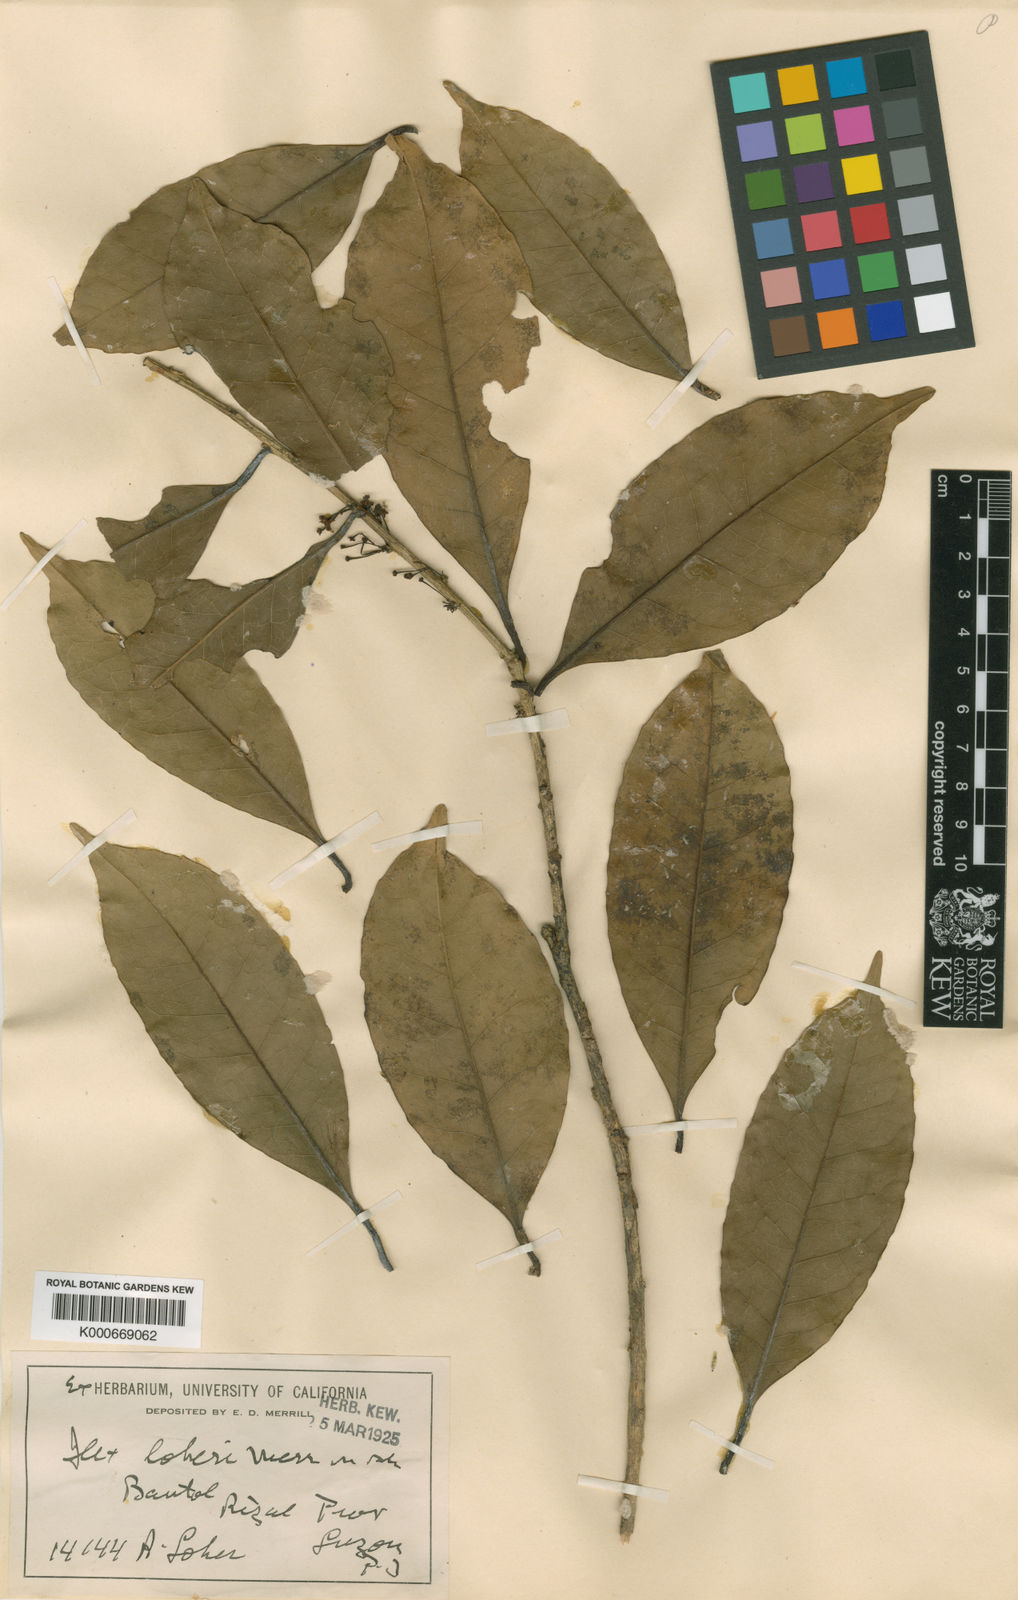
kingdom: Plantae
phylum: Tracheophyta
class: Magnoliopsida
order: Aquifoliales
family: Aquifoliaceae
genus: Ilex
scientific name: Ilex formosana
